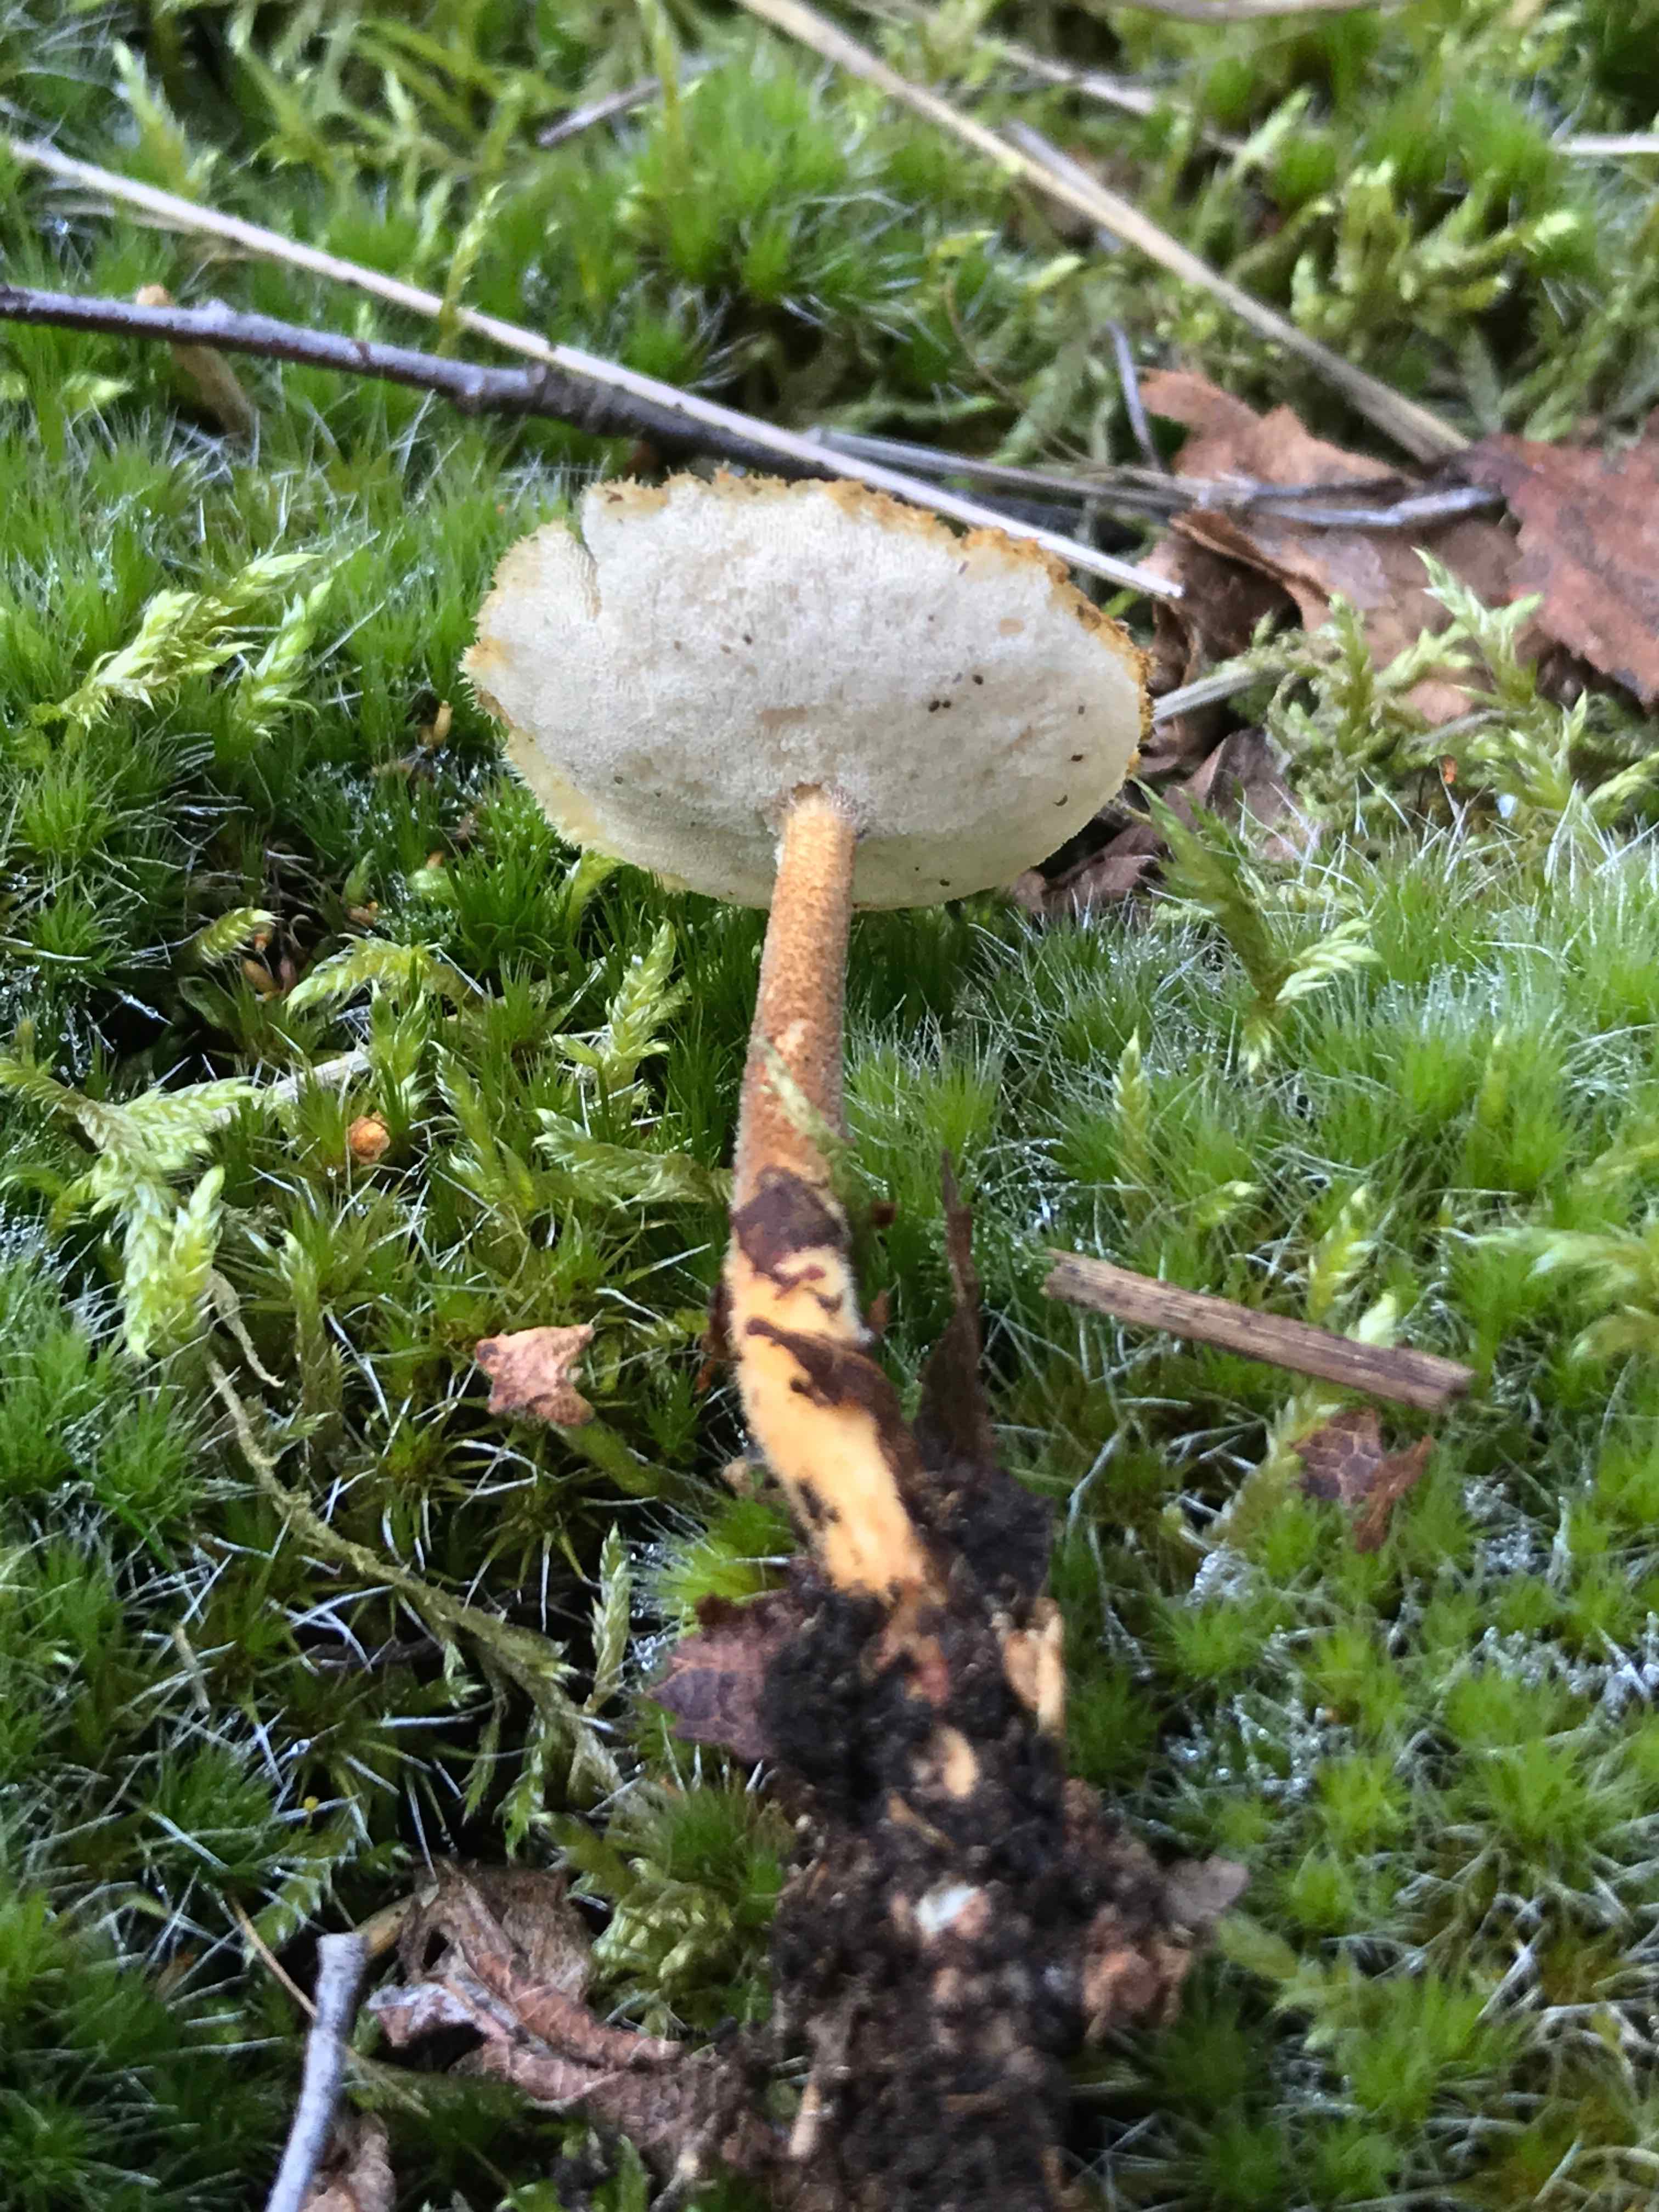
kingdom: Fungi
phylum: Basidiomycota
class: Agaricomycetes
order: Polyporales
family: Polyporaceae
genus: Lentinus
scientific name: Lentinus substrictus
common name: forårs-stilkporesvamp
